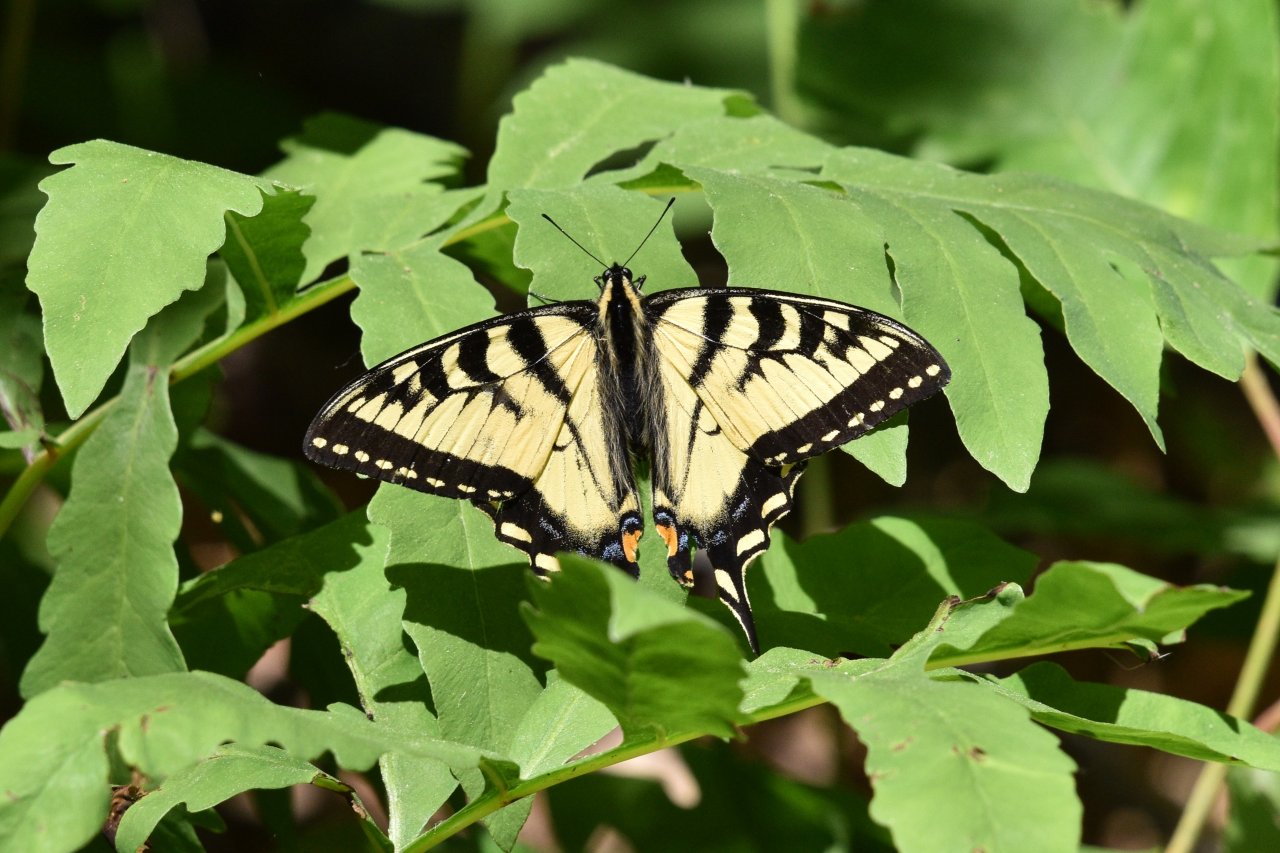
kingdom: Animalia
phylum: Arthropoda
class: Insecta
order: Lepidoptera
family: Papilionidae
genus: Pterourus
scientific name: Pterourus canadensis
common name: Canadian Tiger Swallowtail
